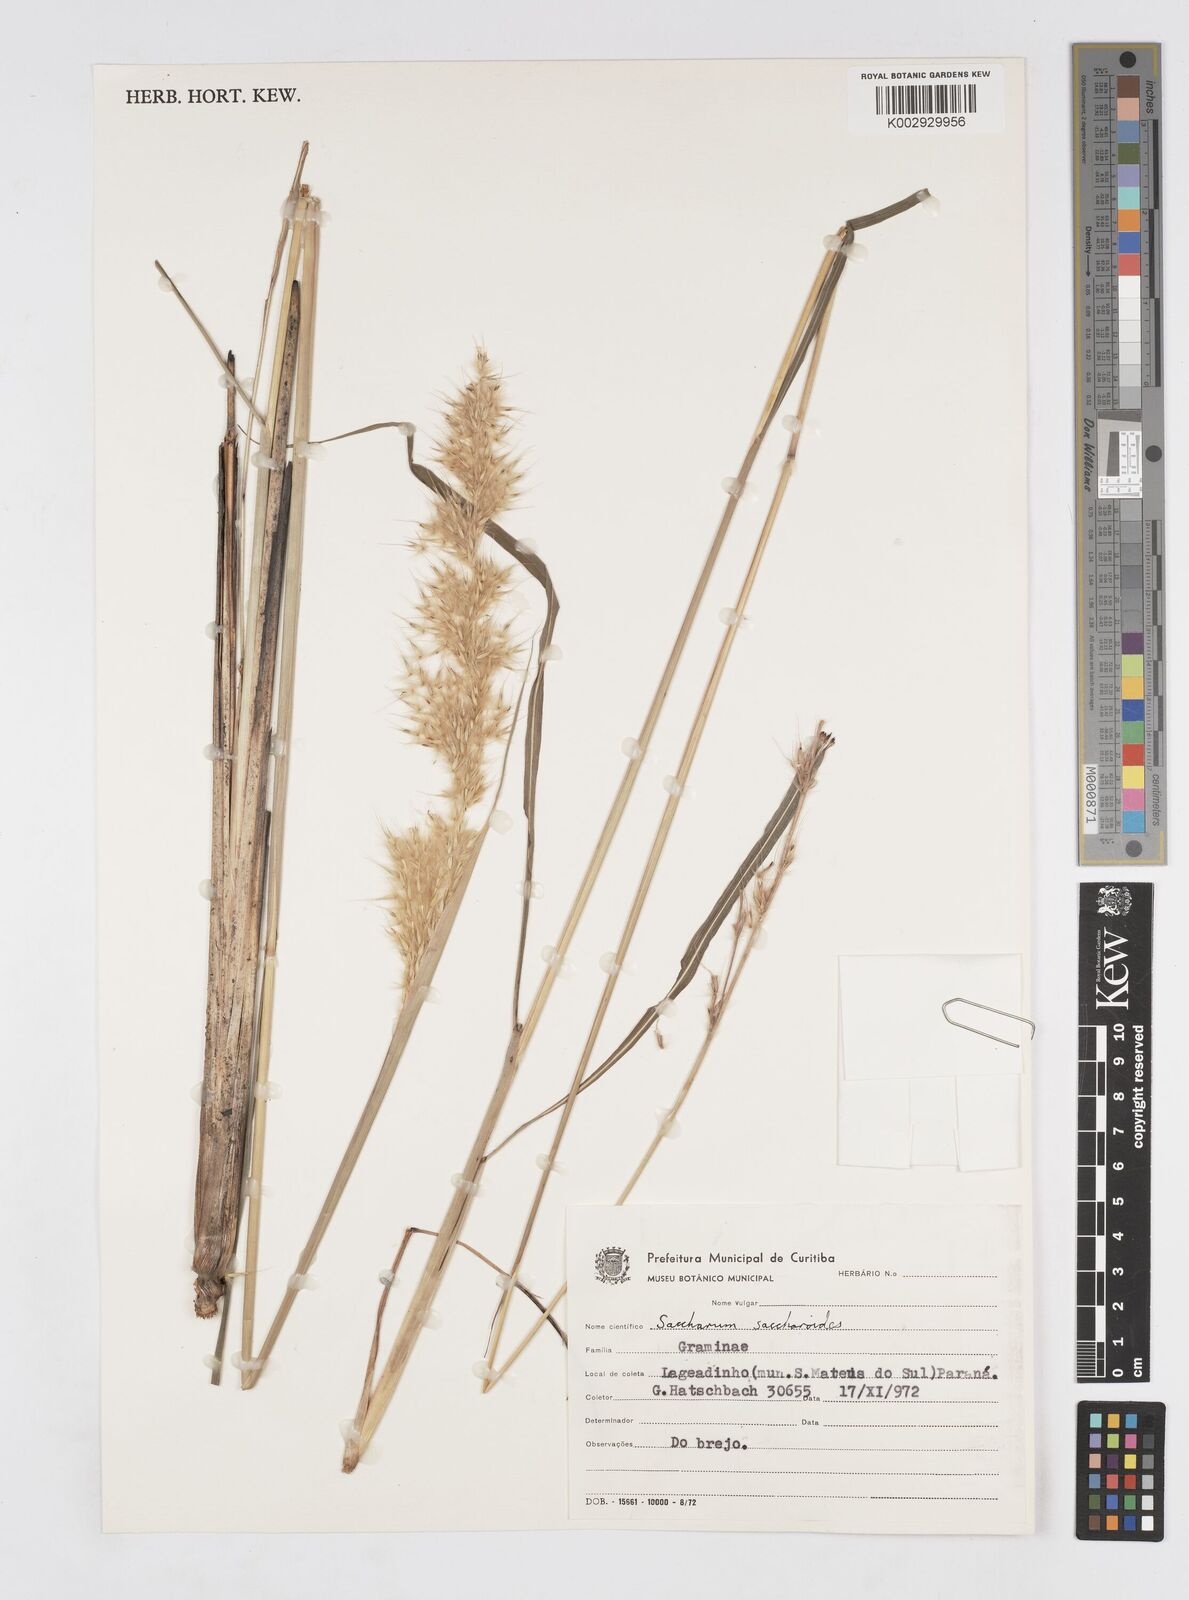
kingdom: Plantae
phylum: Tracheophyta
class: Liliopsida
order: Poales
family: Poaceae
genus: Saccharum
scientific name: Saccharum angustifolium
